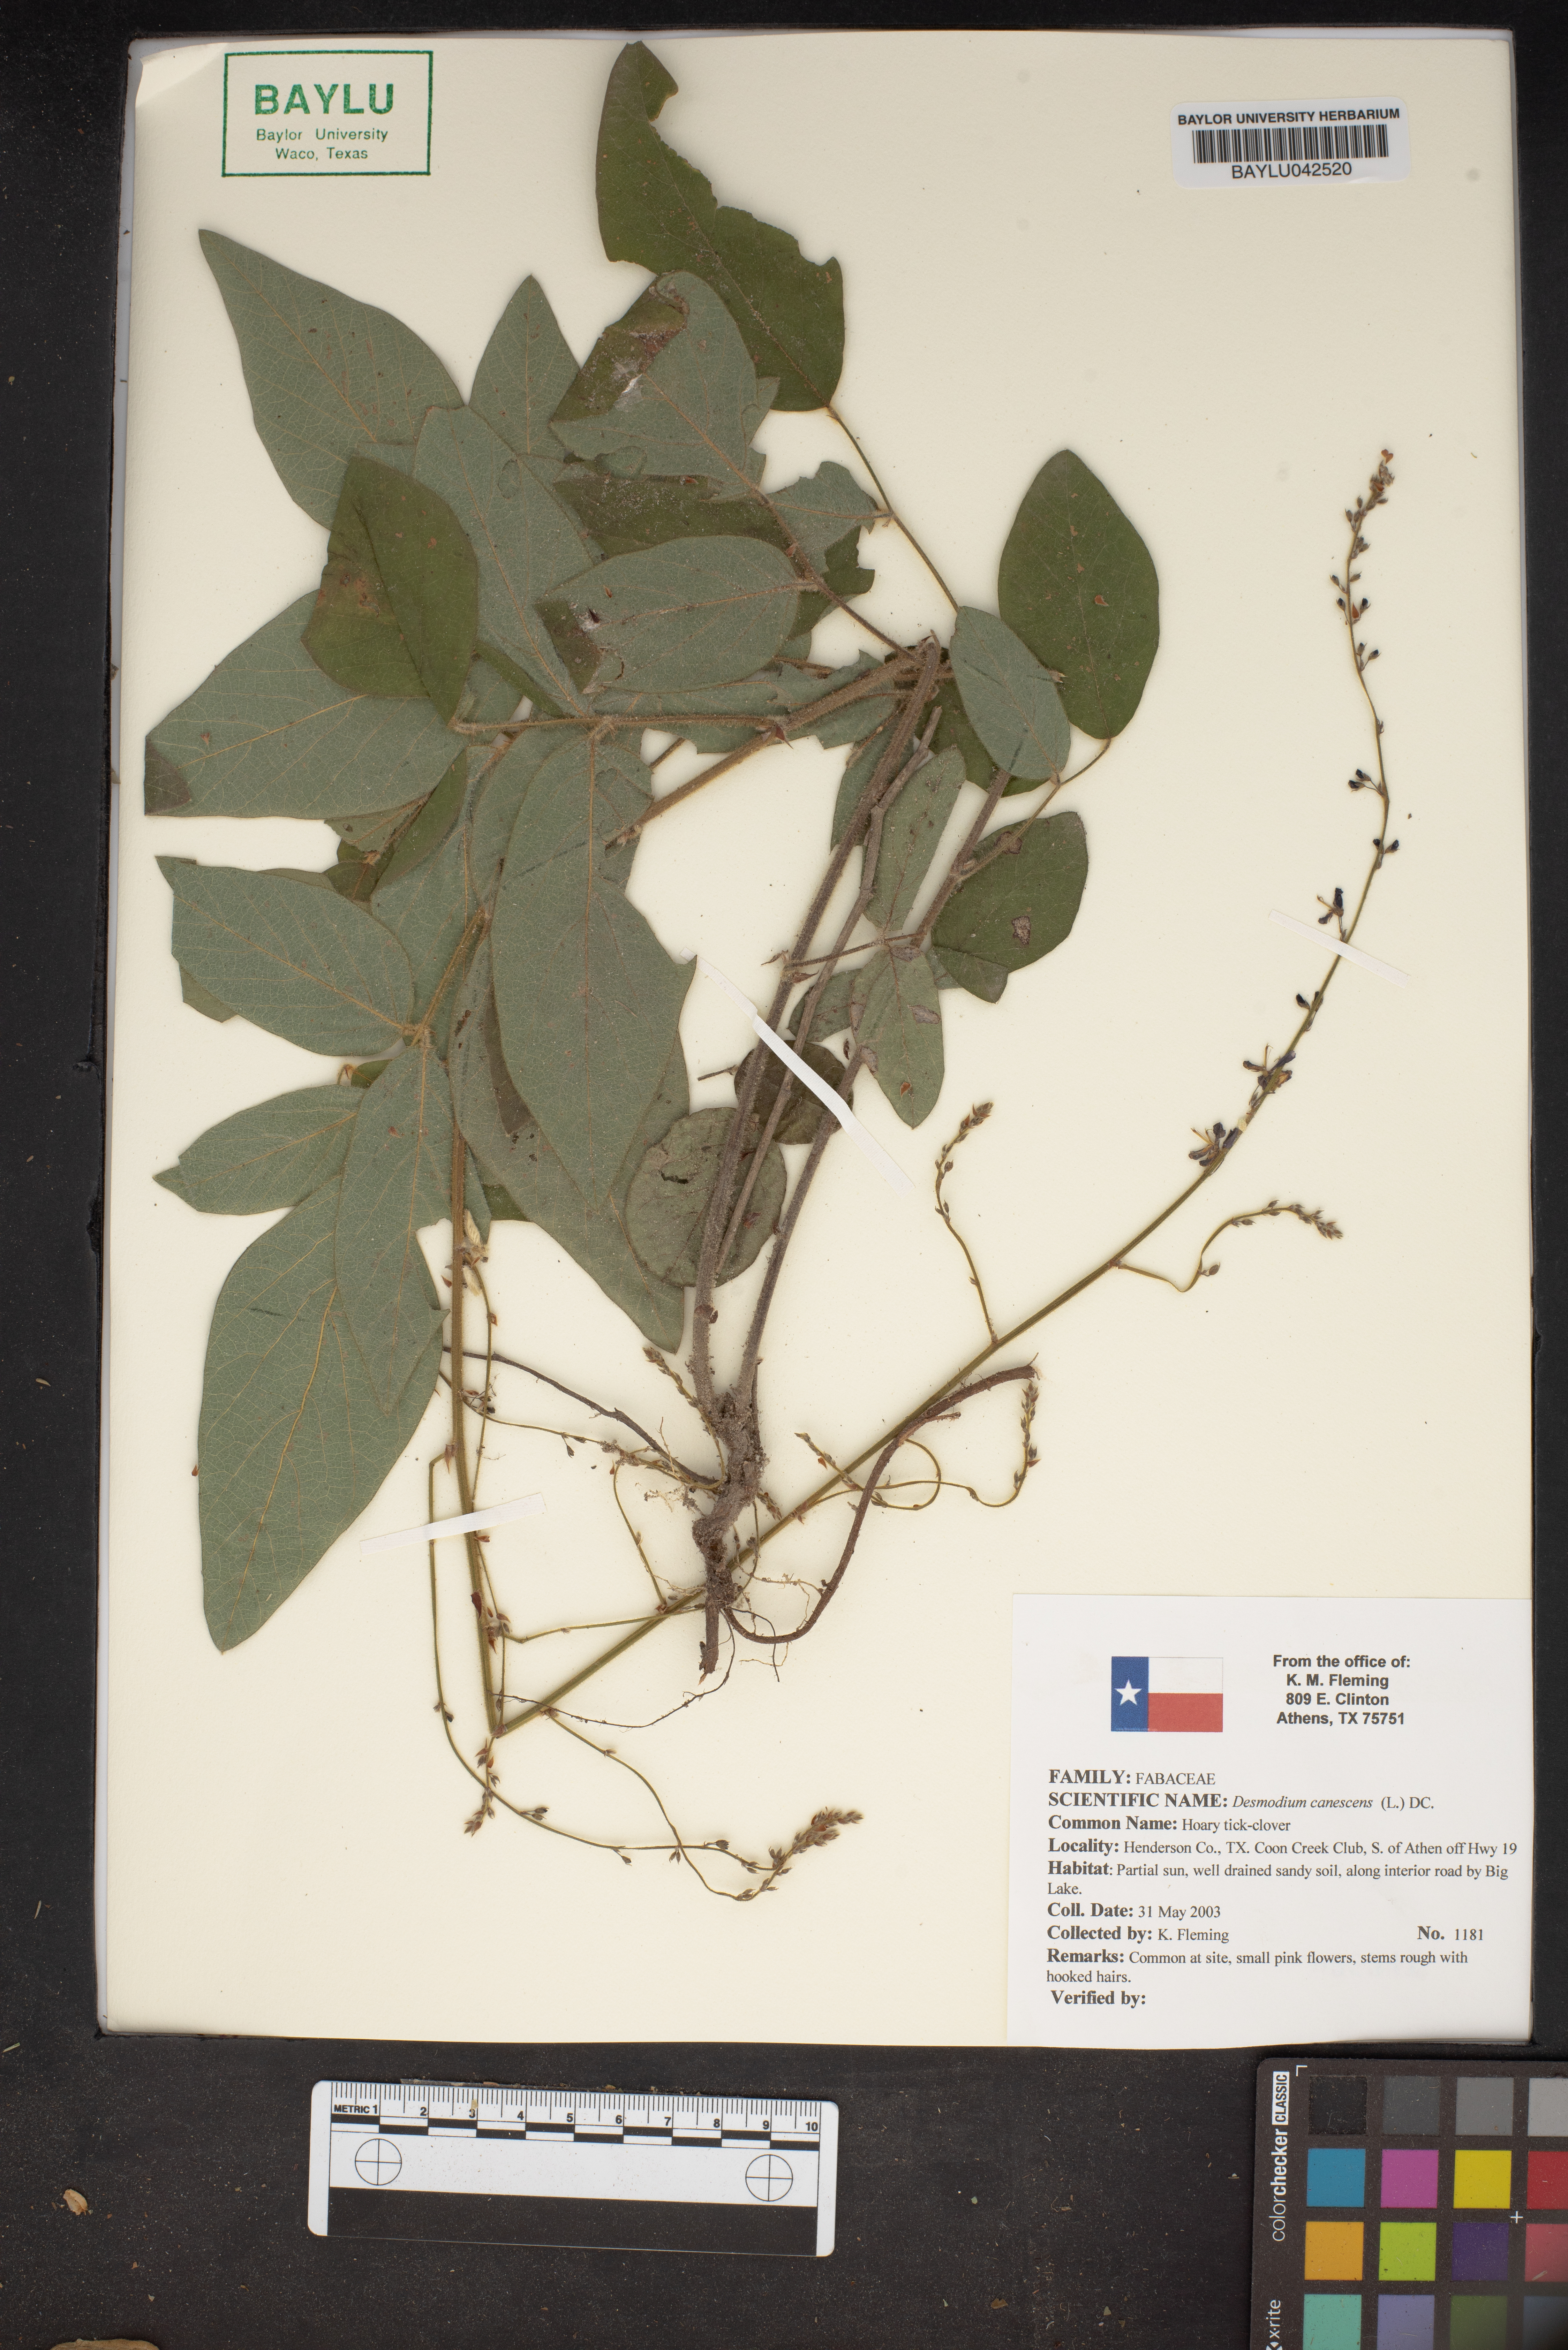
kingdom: Plantae
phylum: Tracheophyta
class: Magnoliopsida
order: Fabales
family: Fabaceae
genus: Desmodium
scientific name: Desmodium canescens
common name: Hoary tick-clover
